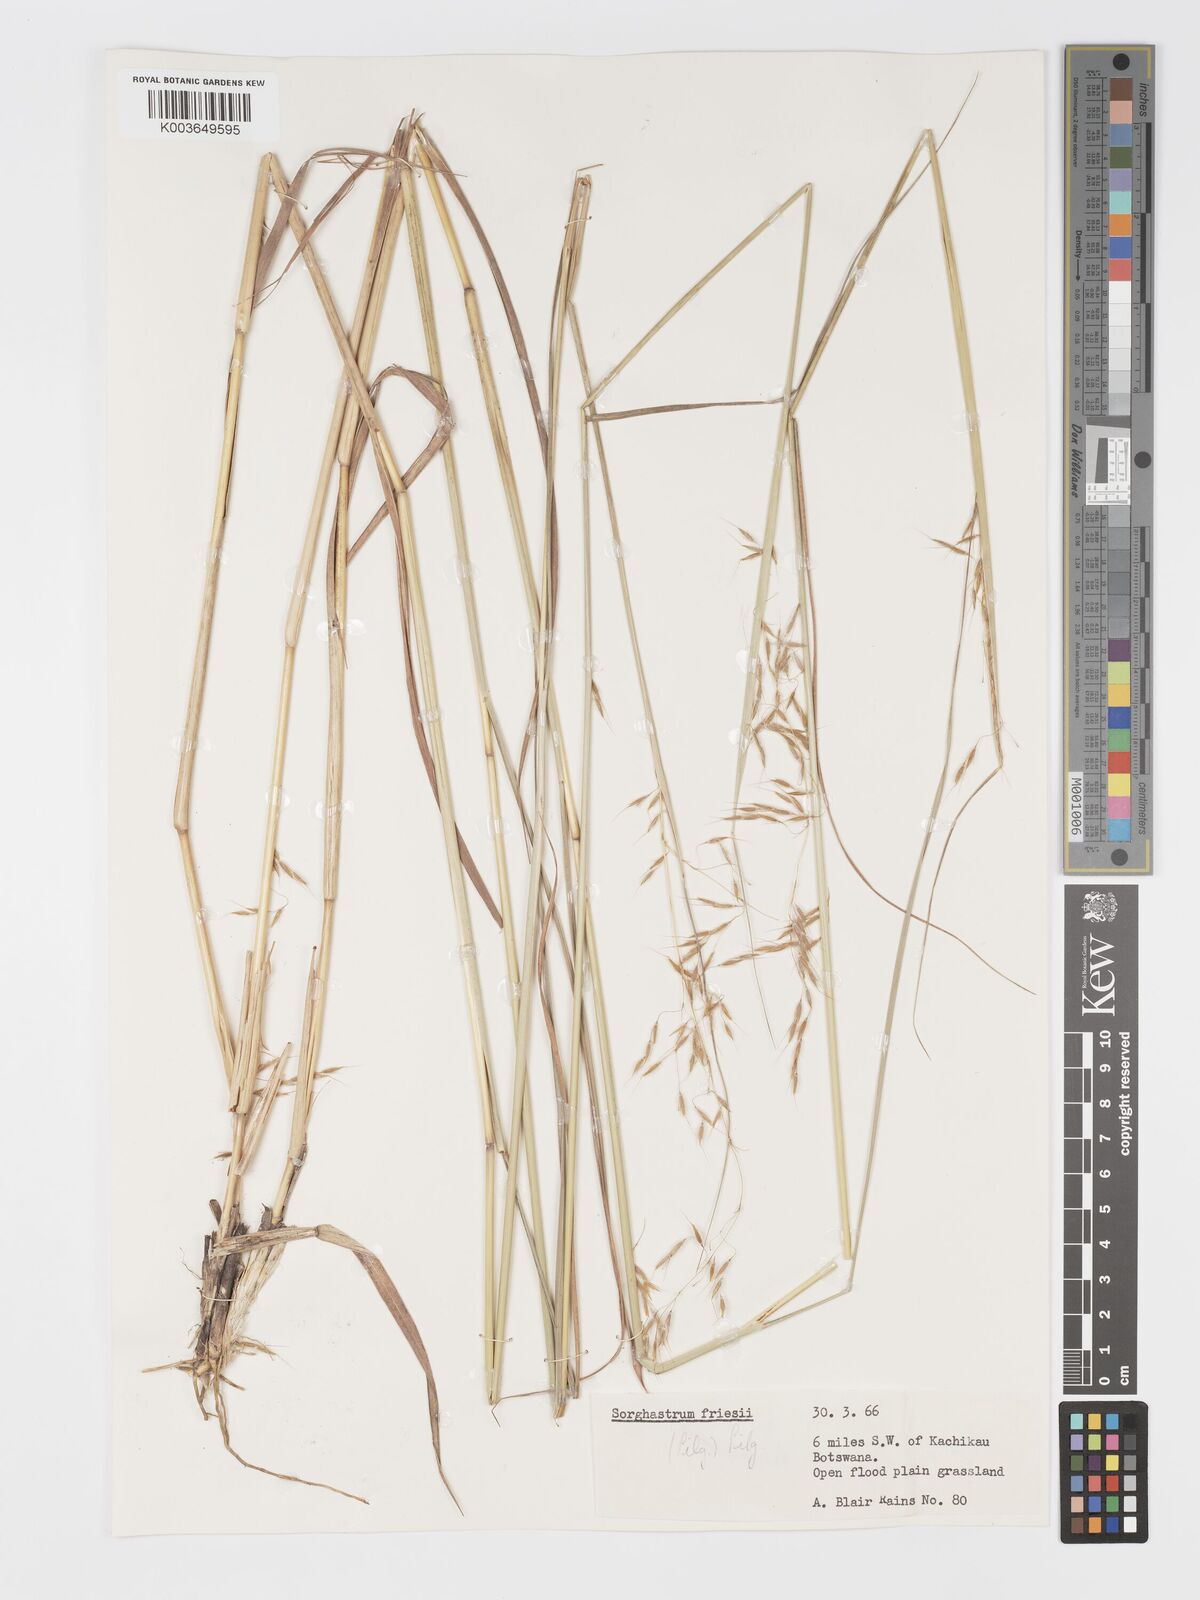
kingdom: Plantae
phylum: Tracheophyta
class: Liliopsida
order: Poales
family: Poaceae
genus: Sorghastrum
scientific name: Sorghastrum nudipes
